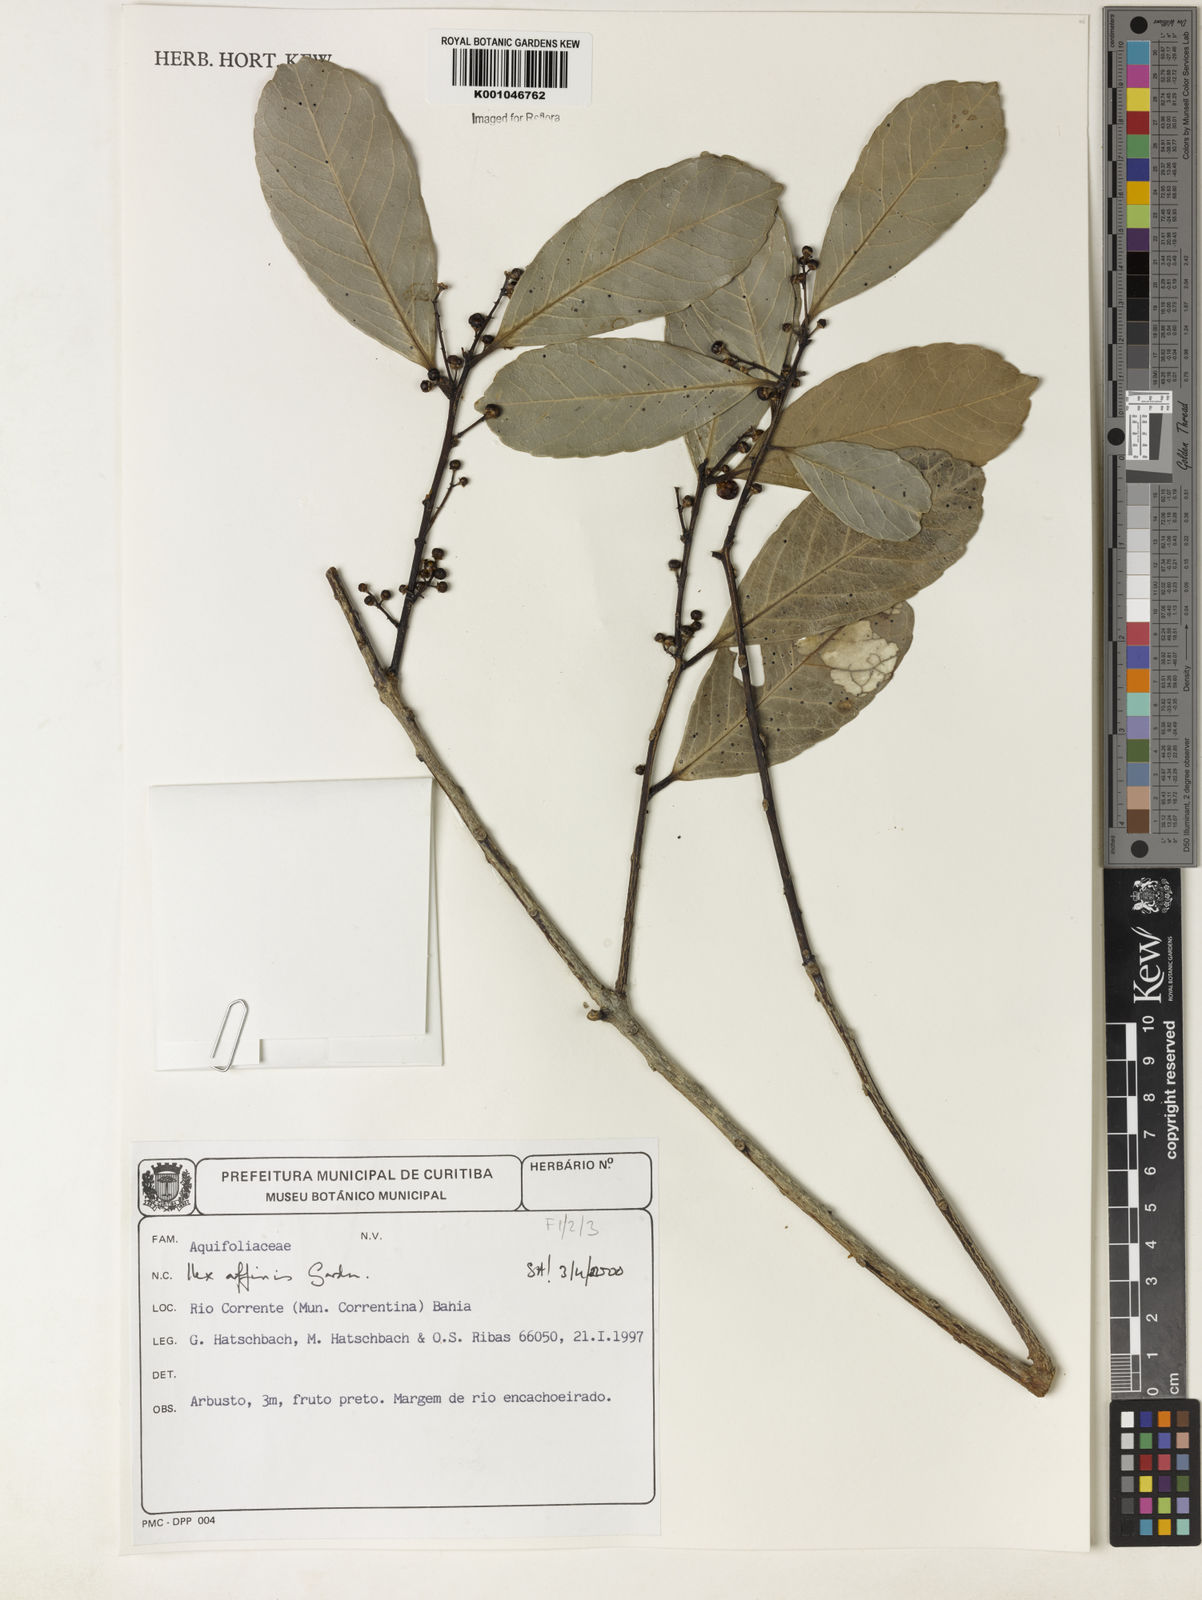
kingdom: Plantae
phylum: Tracheophyta
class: Magnoliopsida
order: Aquifoliales
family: Aquifoliaceae
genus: Ilex
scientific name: Ilex affinis
